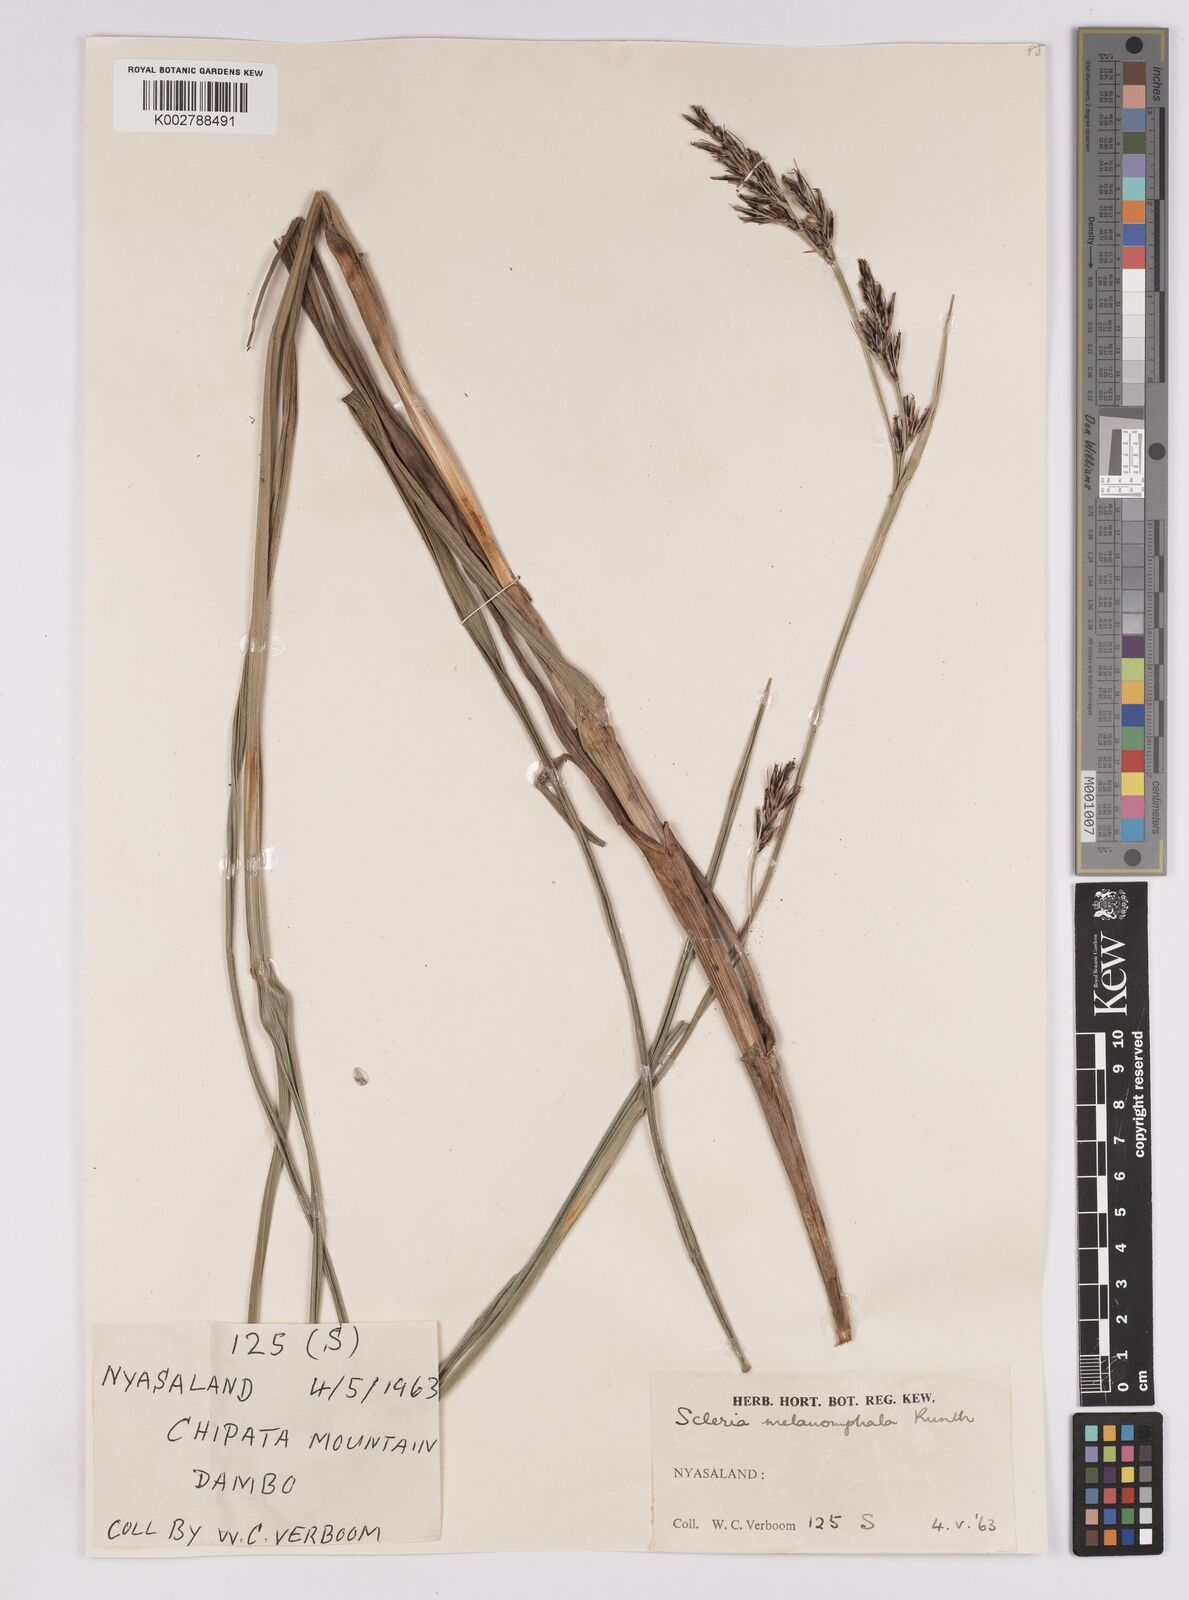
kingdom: Plantae
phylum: Tracheophyta
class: Liliopsida
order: Poales
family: Cyperaceae
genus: Scleria
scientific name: Scleria melanomphala
